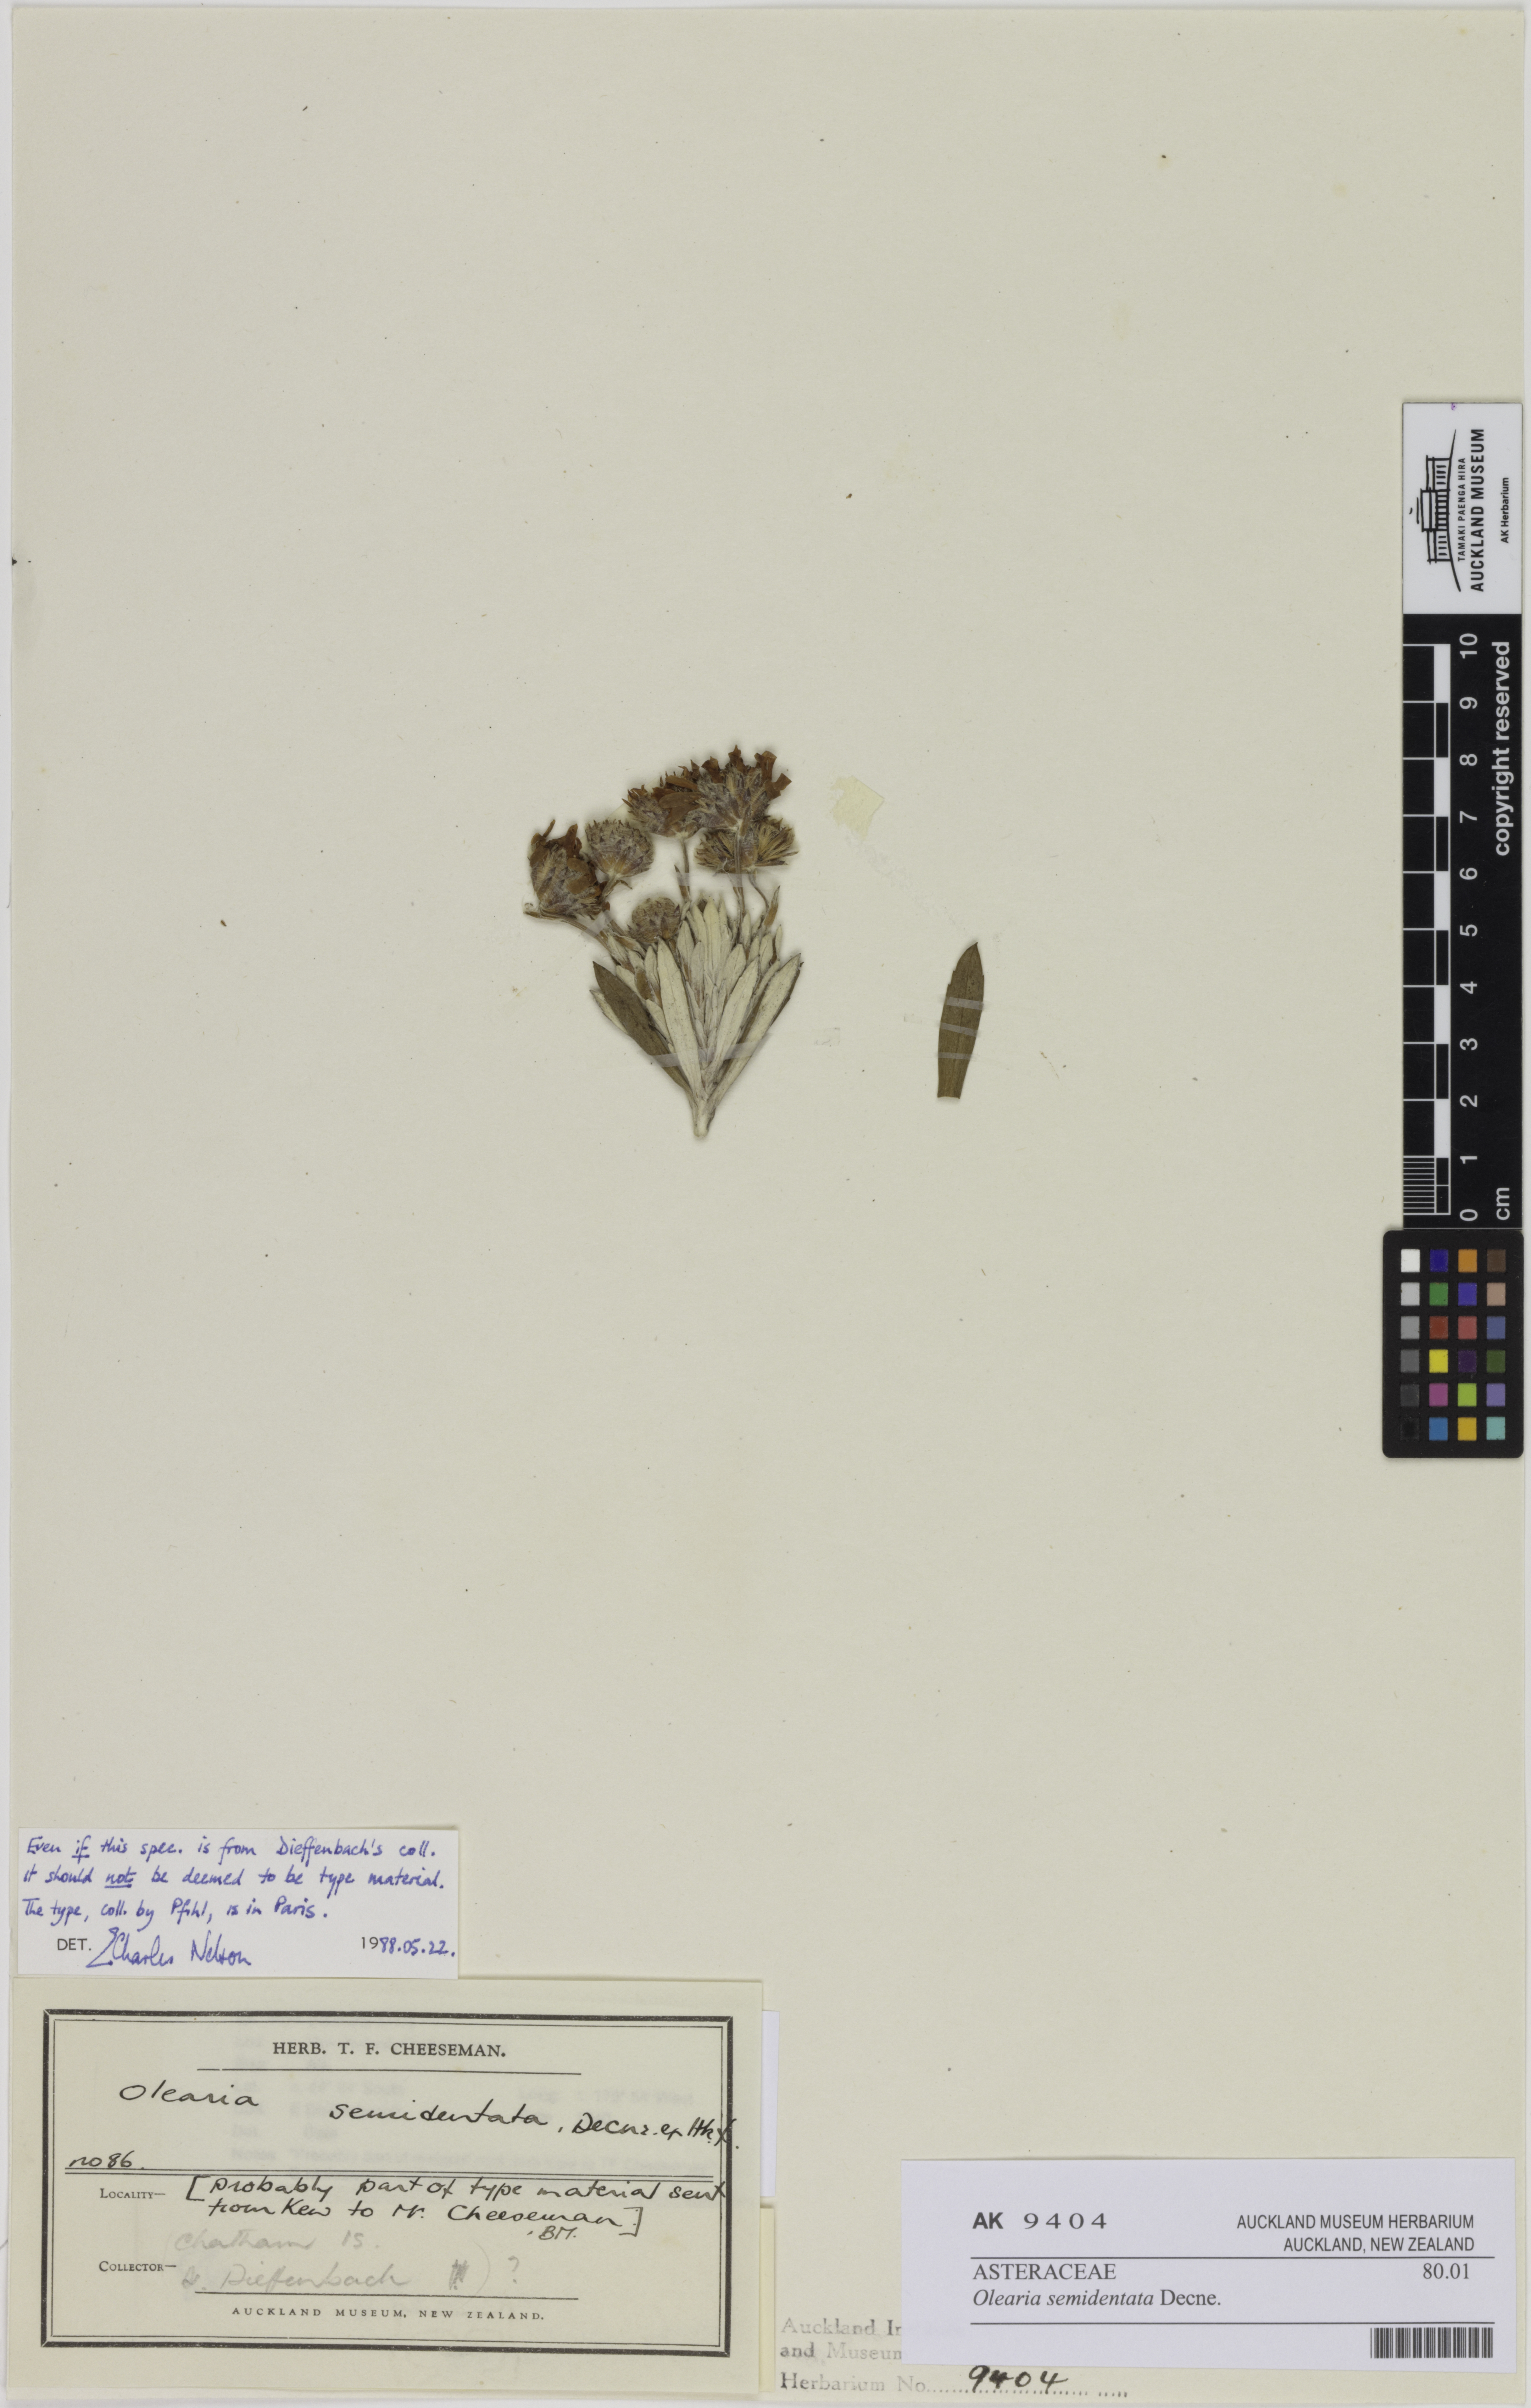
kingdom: Plantae
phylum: Tracheophyta
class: Magnoliopsida
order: Asterales
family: Asteraceae
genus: Macrolearia
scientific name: Macrolearia semidentata
